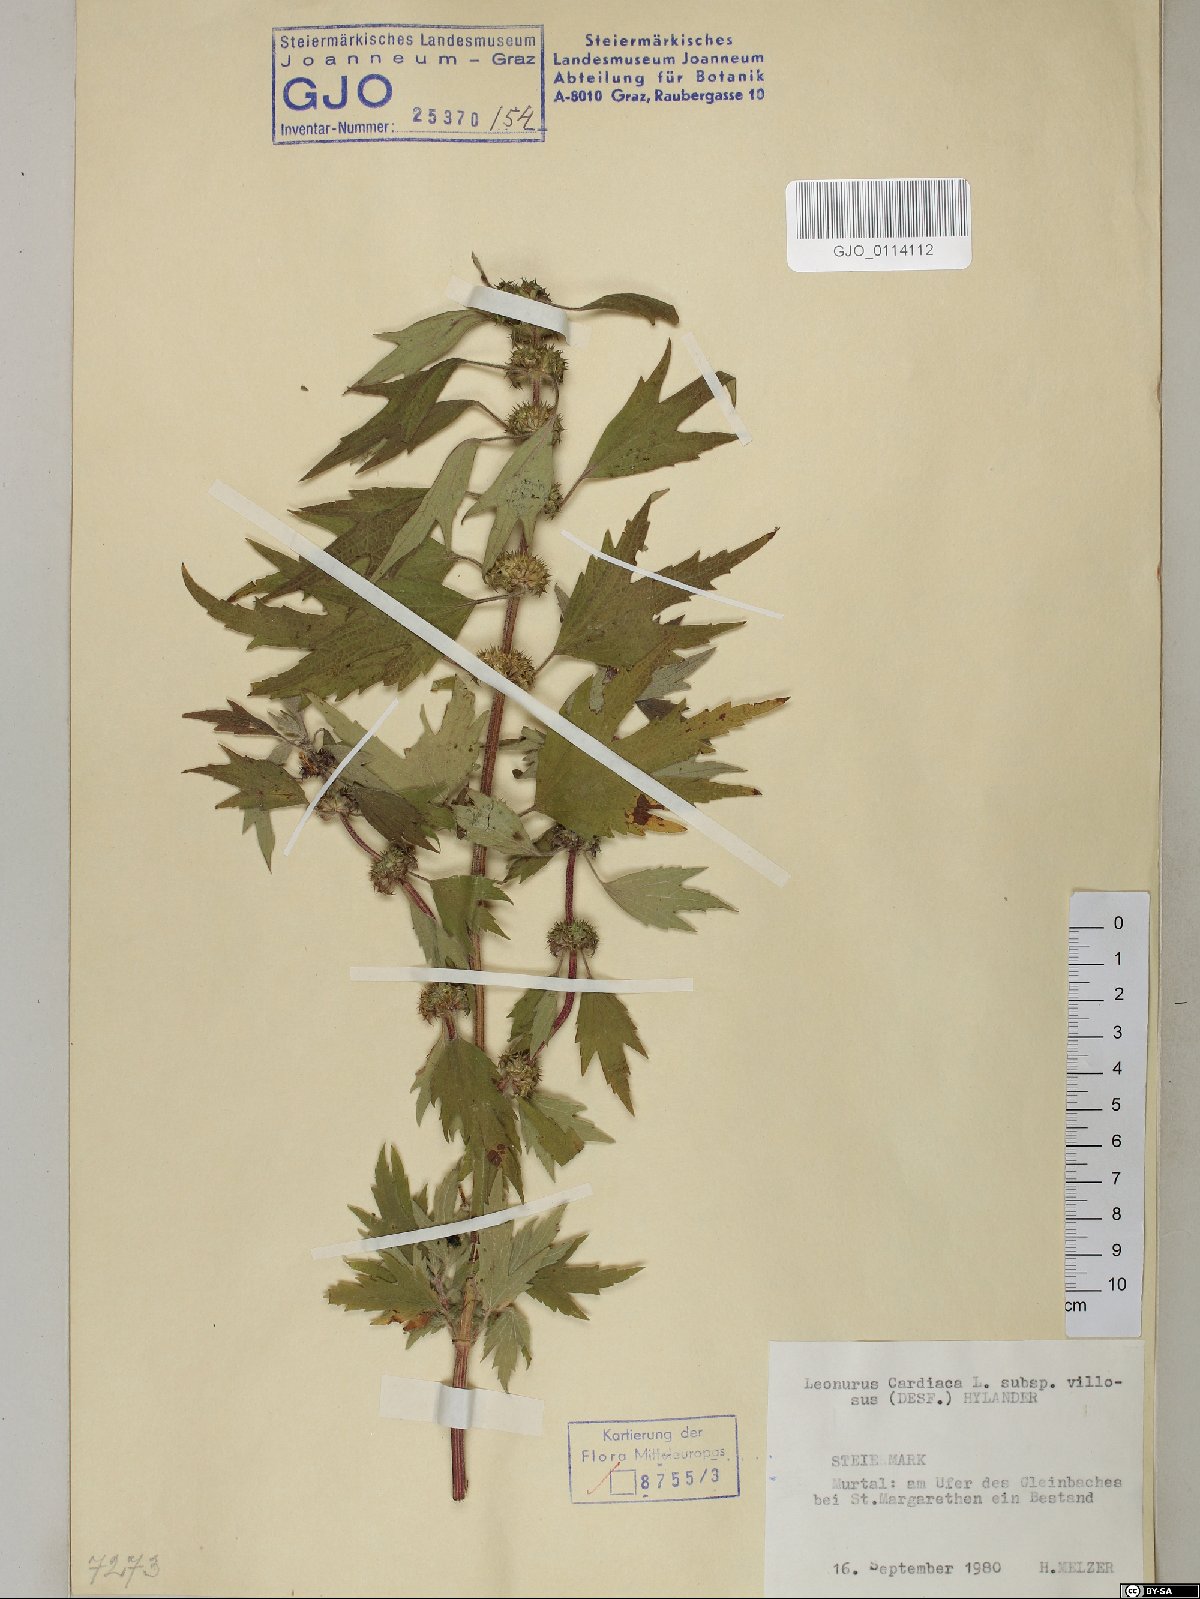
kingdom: Plantae
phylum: Tracheophyta
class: Magnoliopsida
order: Lamiales
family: Lamiaceae
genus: Leonurus
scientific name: Leonurus quinquelobatus
